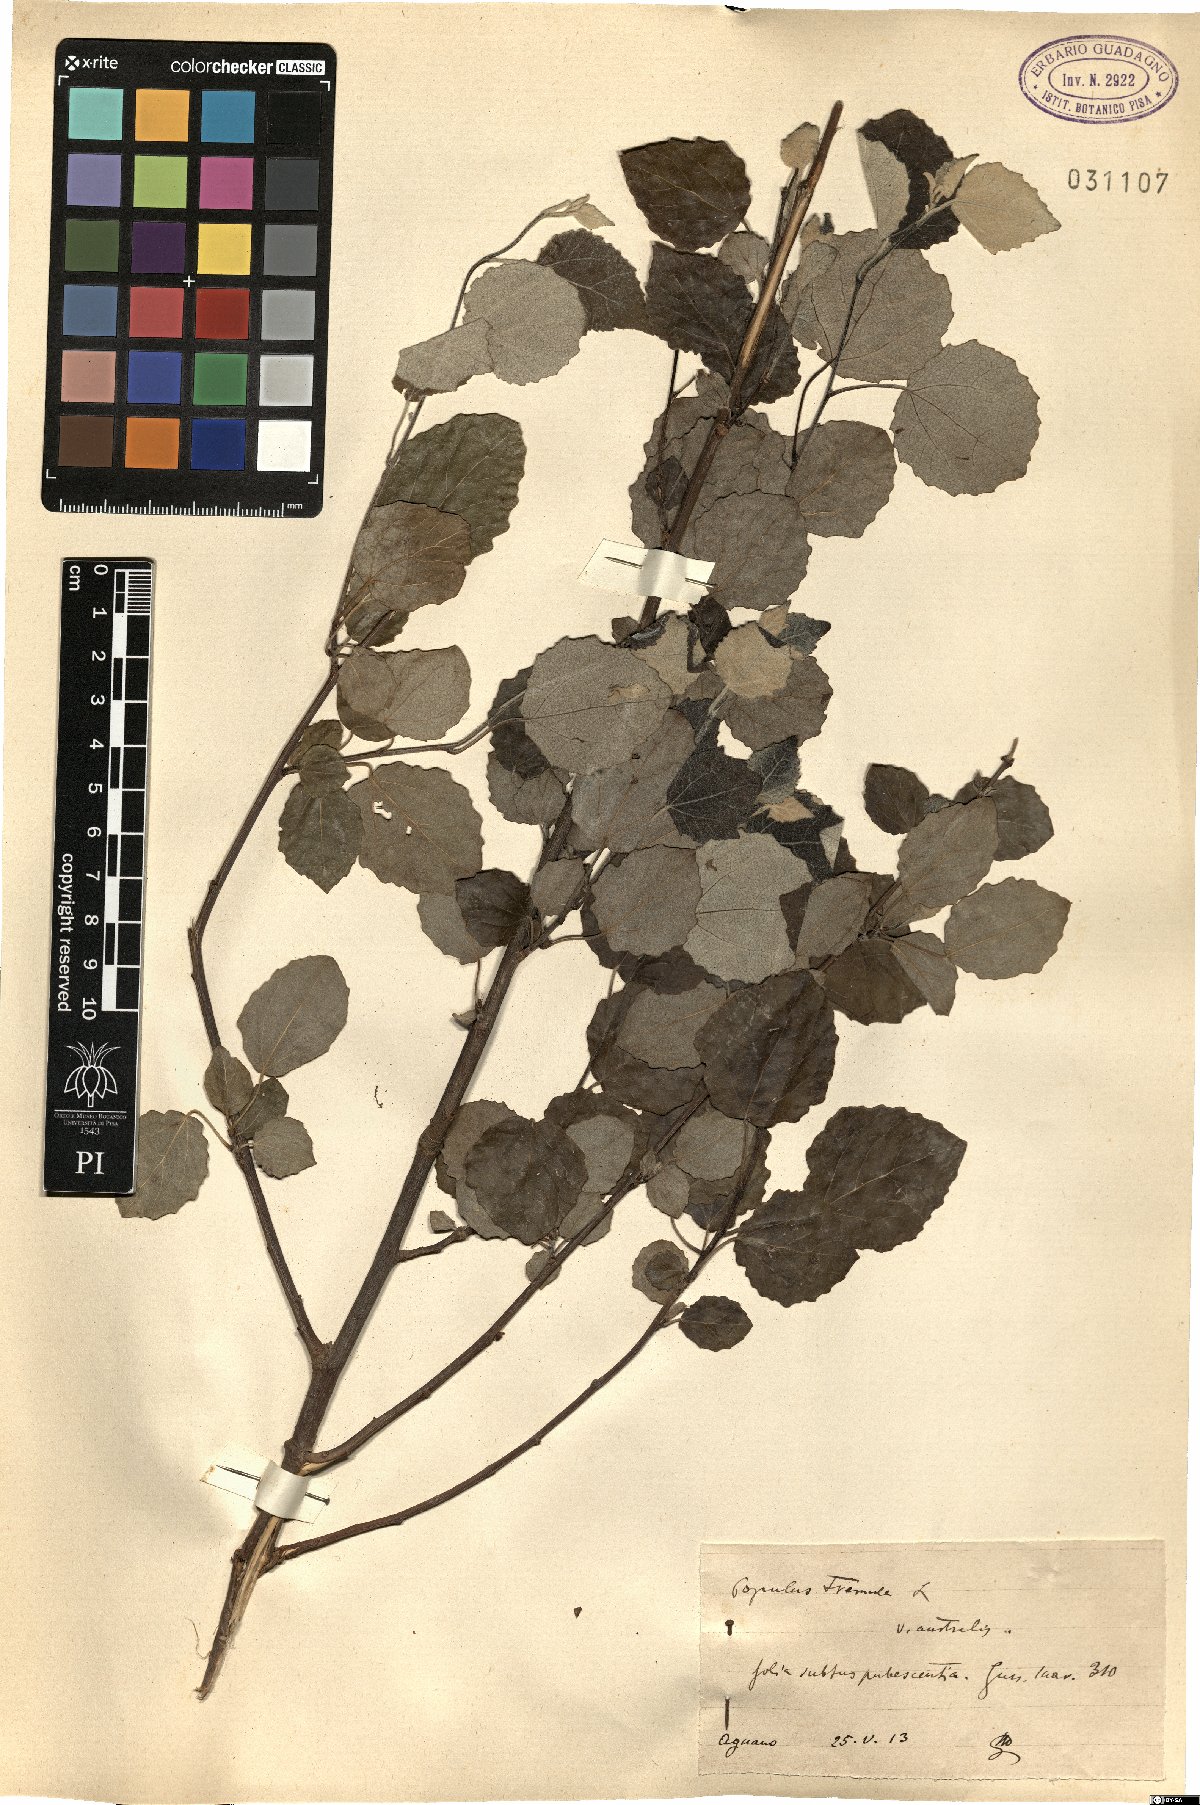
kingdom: Plantae
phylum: Tracheophyta
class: Magnoliopsida
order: Malpighiales
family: Salicaceae
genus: Populus
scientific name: Populus tremula
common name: European aspen
